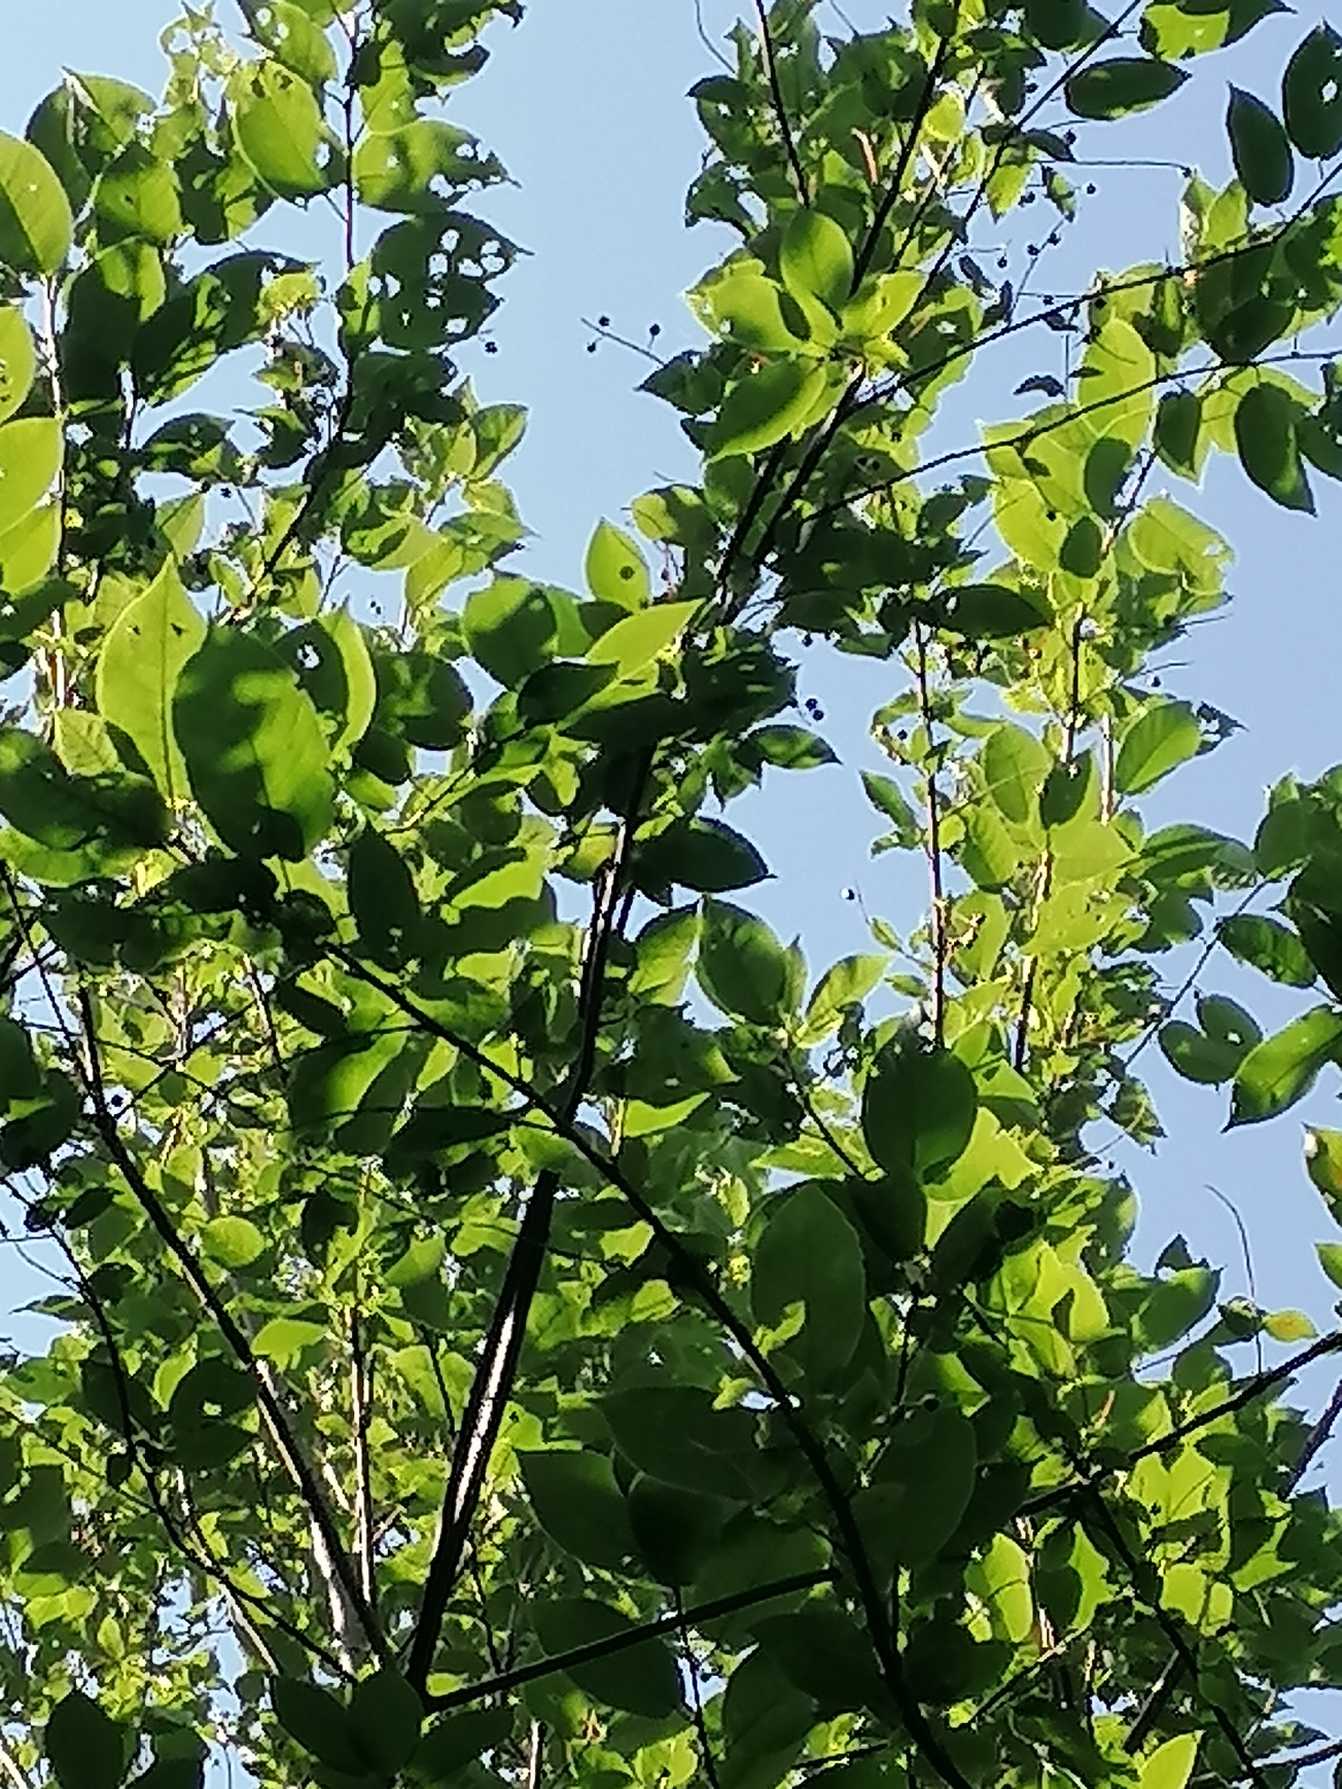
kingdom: Plantae
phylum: Tracheophyta
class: Magnoliopsida
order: Rosales
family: Rosaceae
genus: Prunus
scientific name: Prunus padus
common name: Almindelig hæg
